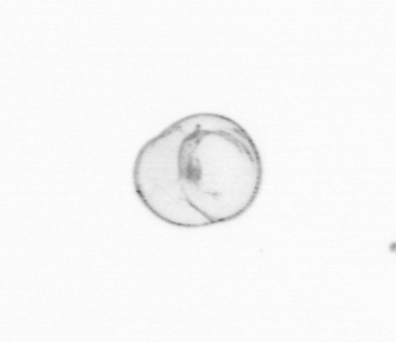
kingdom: Chromista
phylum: Myzozoa
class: Dinophyceae
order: Noctilucales
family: Noctilucaceae
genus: Noctiluca
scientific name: Noctiluca scintillans
